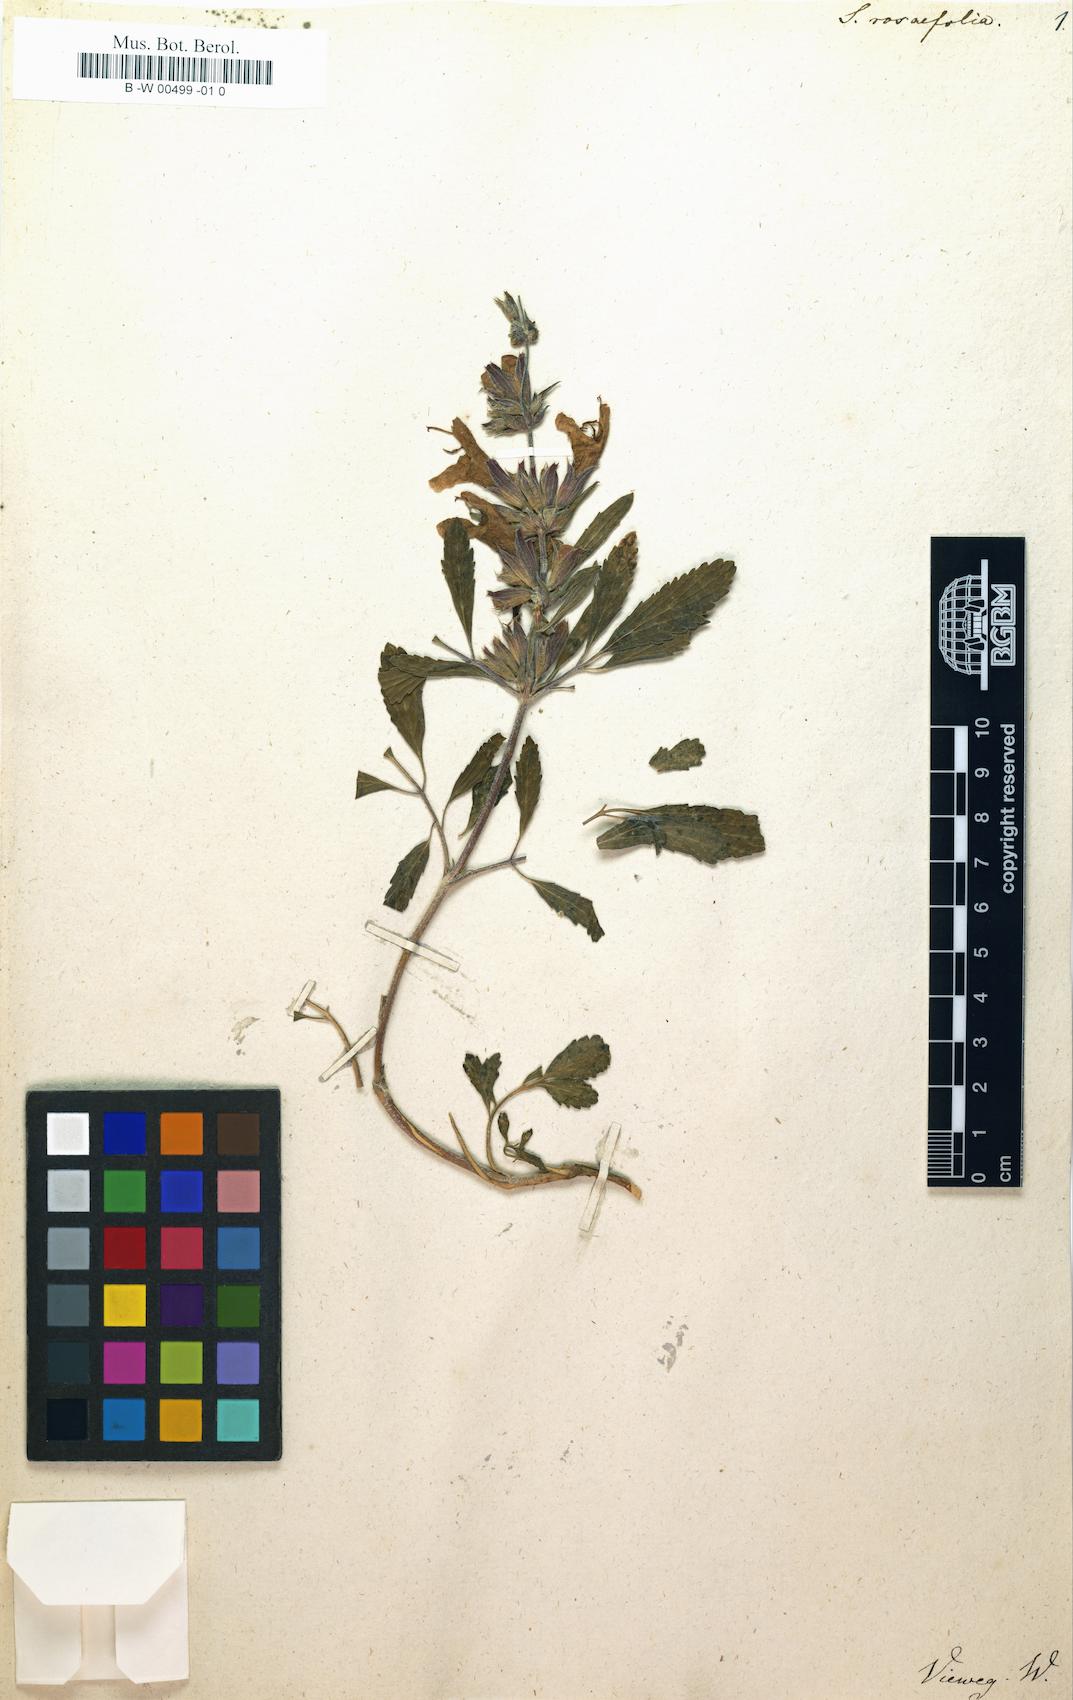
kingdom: Plantae
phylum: Tracheophyta
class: Magnoliopsida
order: Lamiales
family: Lamiaceae
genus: Salvia
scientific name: Salvia rosifolia
